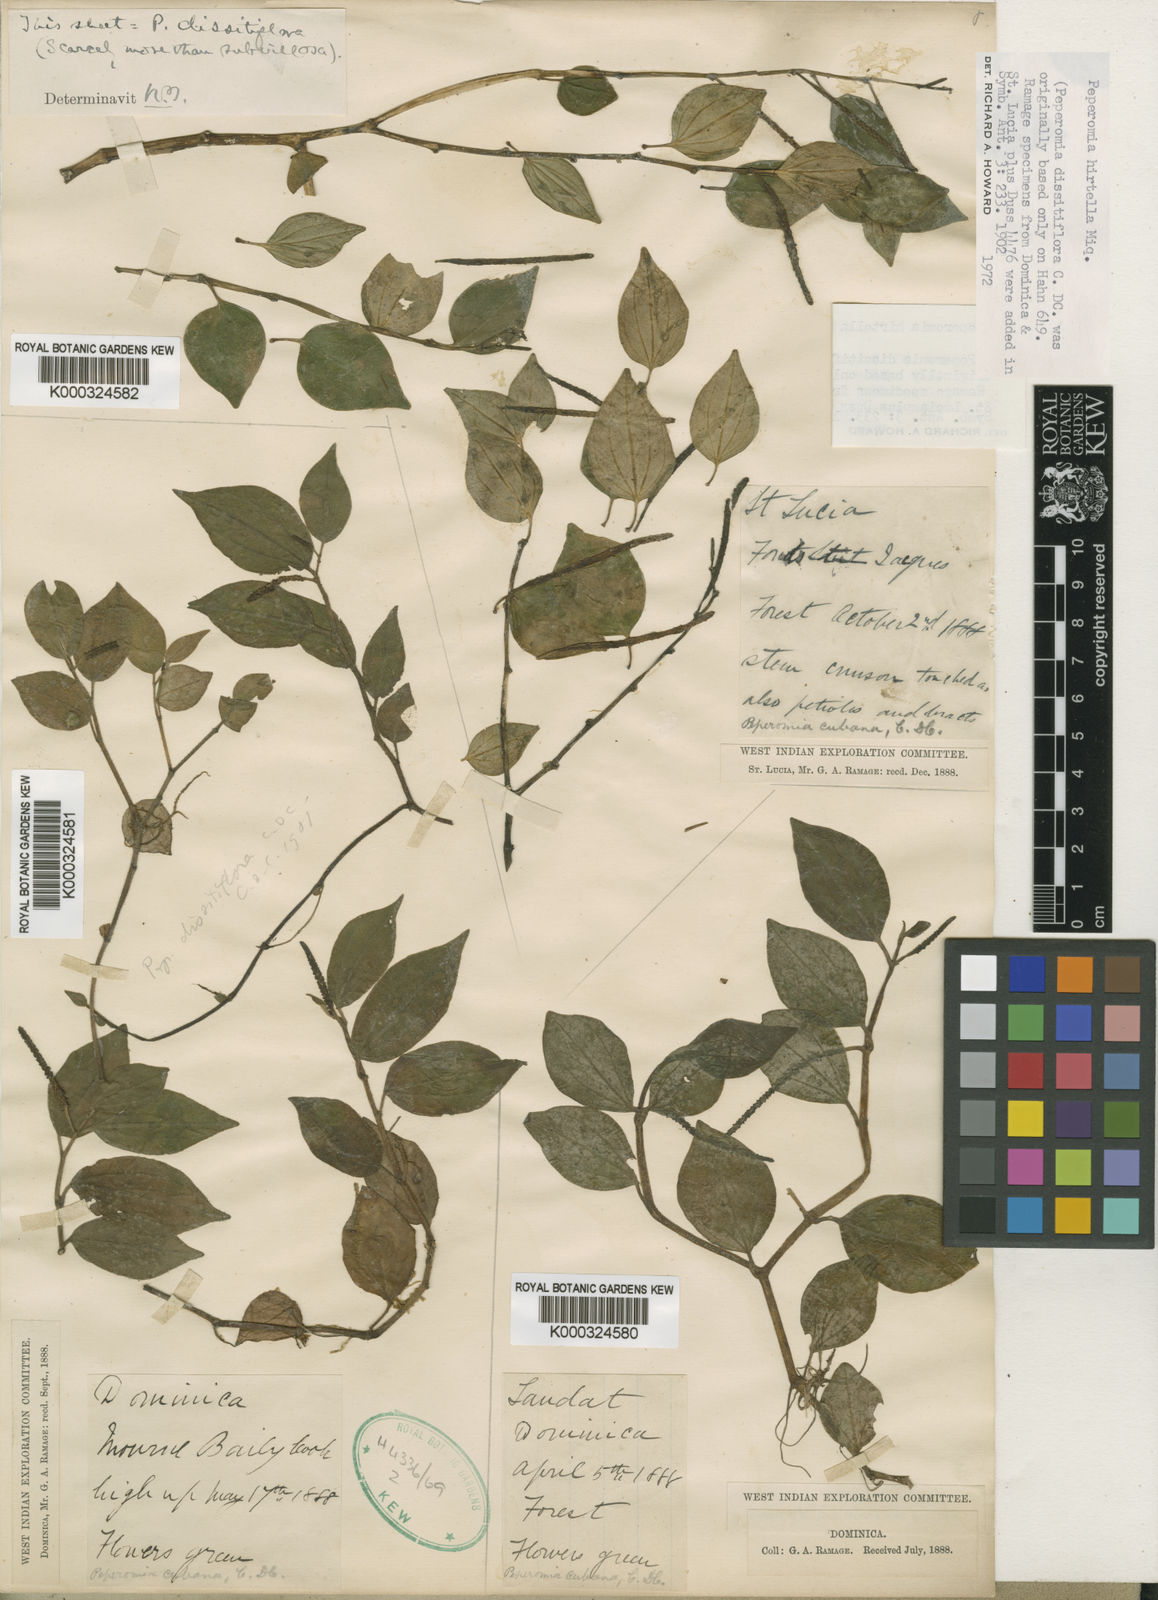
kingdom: Plantae
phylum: Tracheophyta
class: Magnoliopsida
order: Piperales
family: Piperaceae
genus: Peperomia
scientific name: Peperomia succulenta
